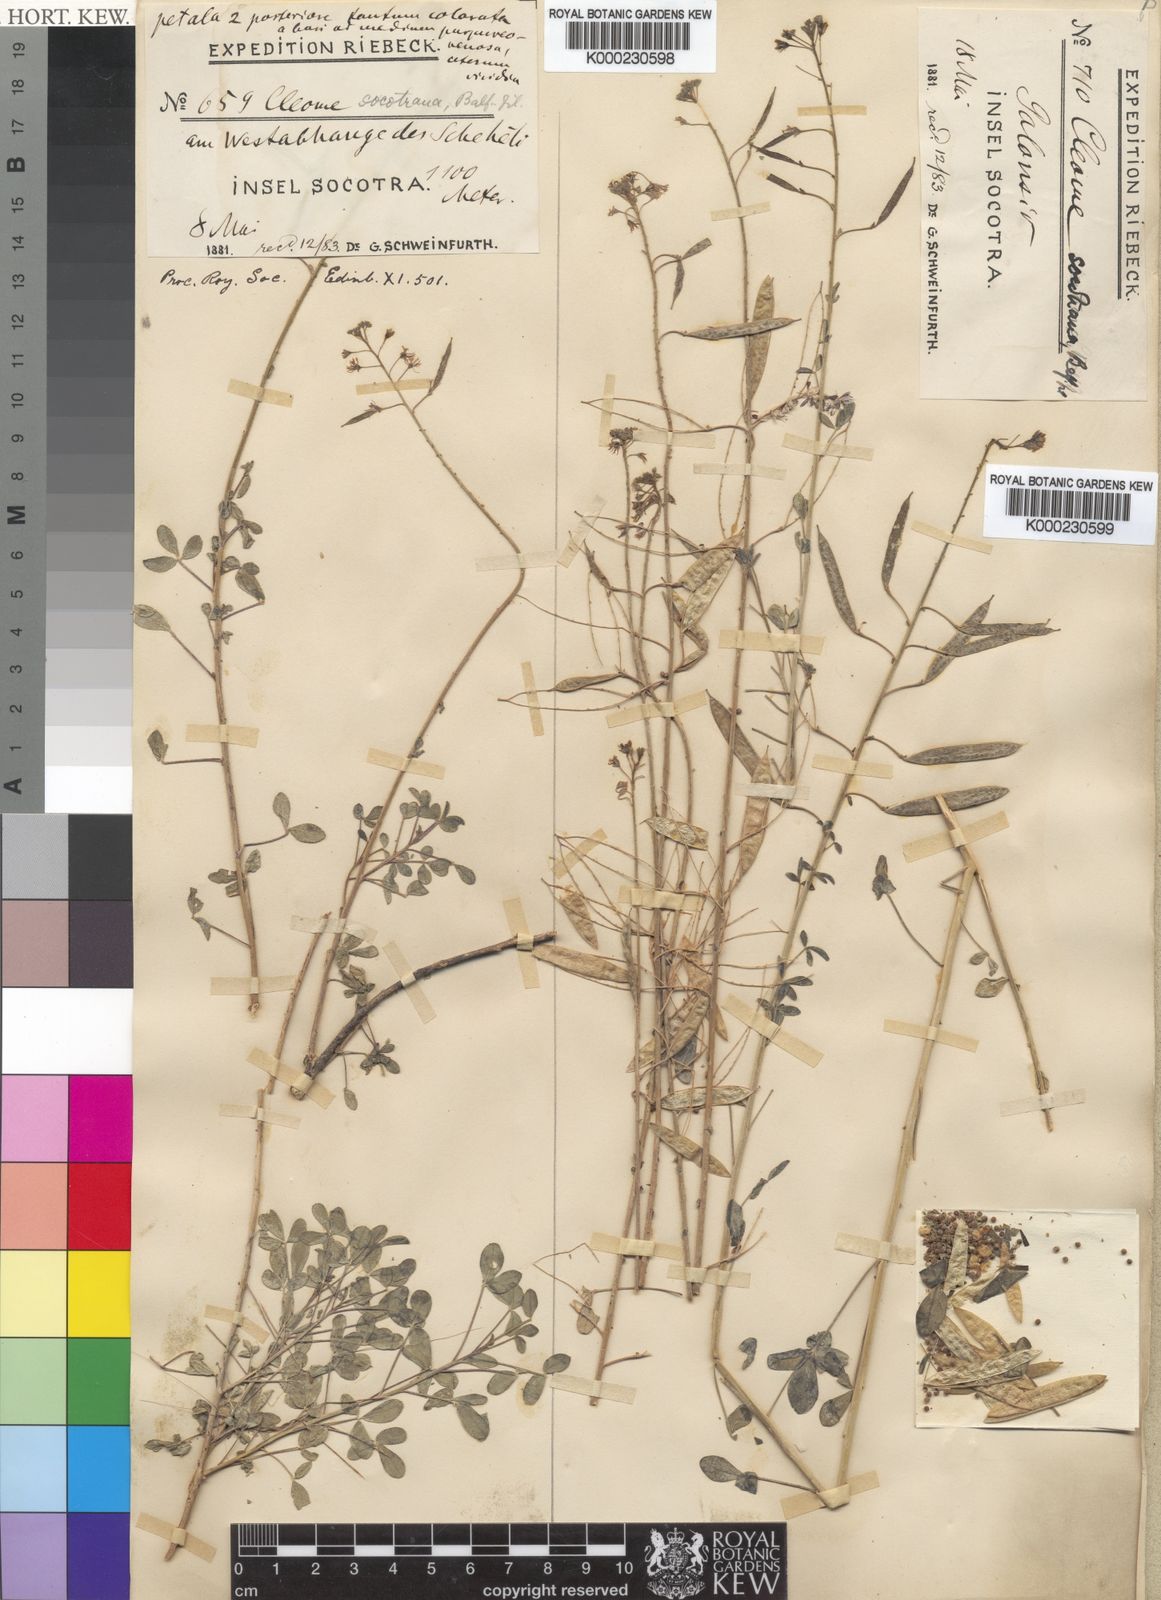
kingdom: Plantae
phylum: Tracheophyta
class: Magnoliopsida
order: Brassicales
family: Cleomaceae
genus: Cleome
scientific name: Cleome socotrana
